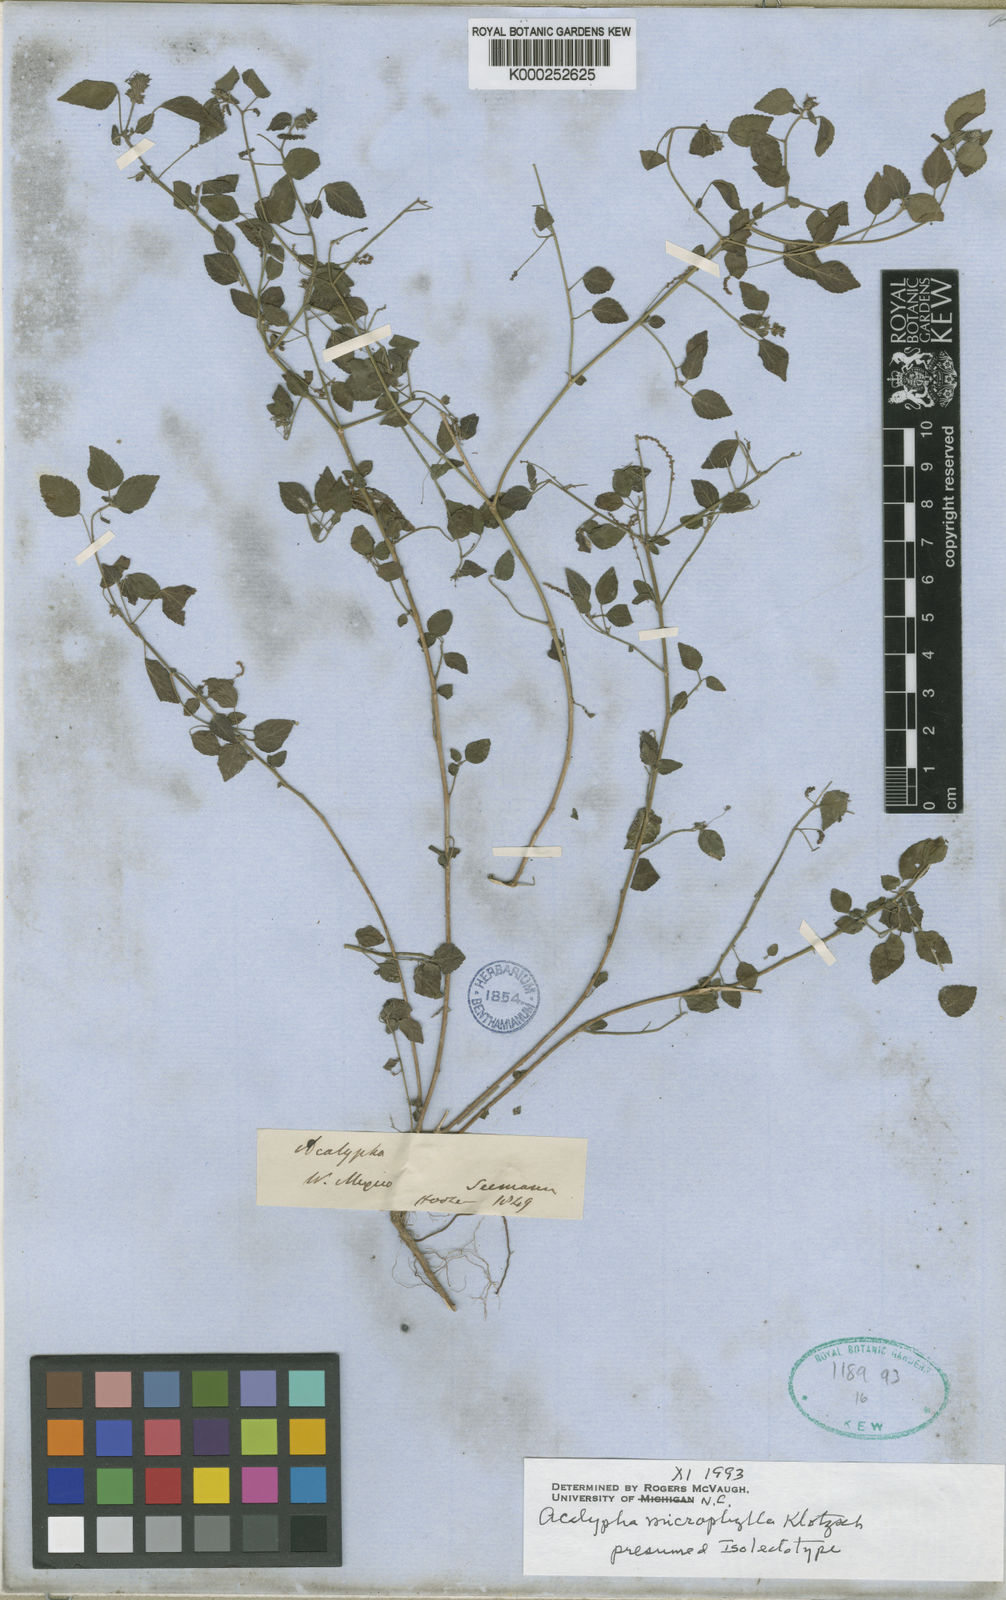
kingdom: Plantae
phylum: Tracheophyta
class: Magnoliopsida
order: Malpighiales
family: Euphorbiaceae
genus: Acalypha
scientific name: Acalypha microphylla
